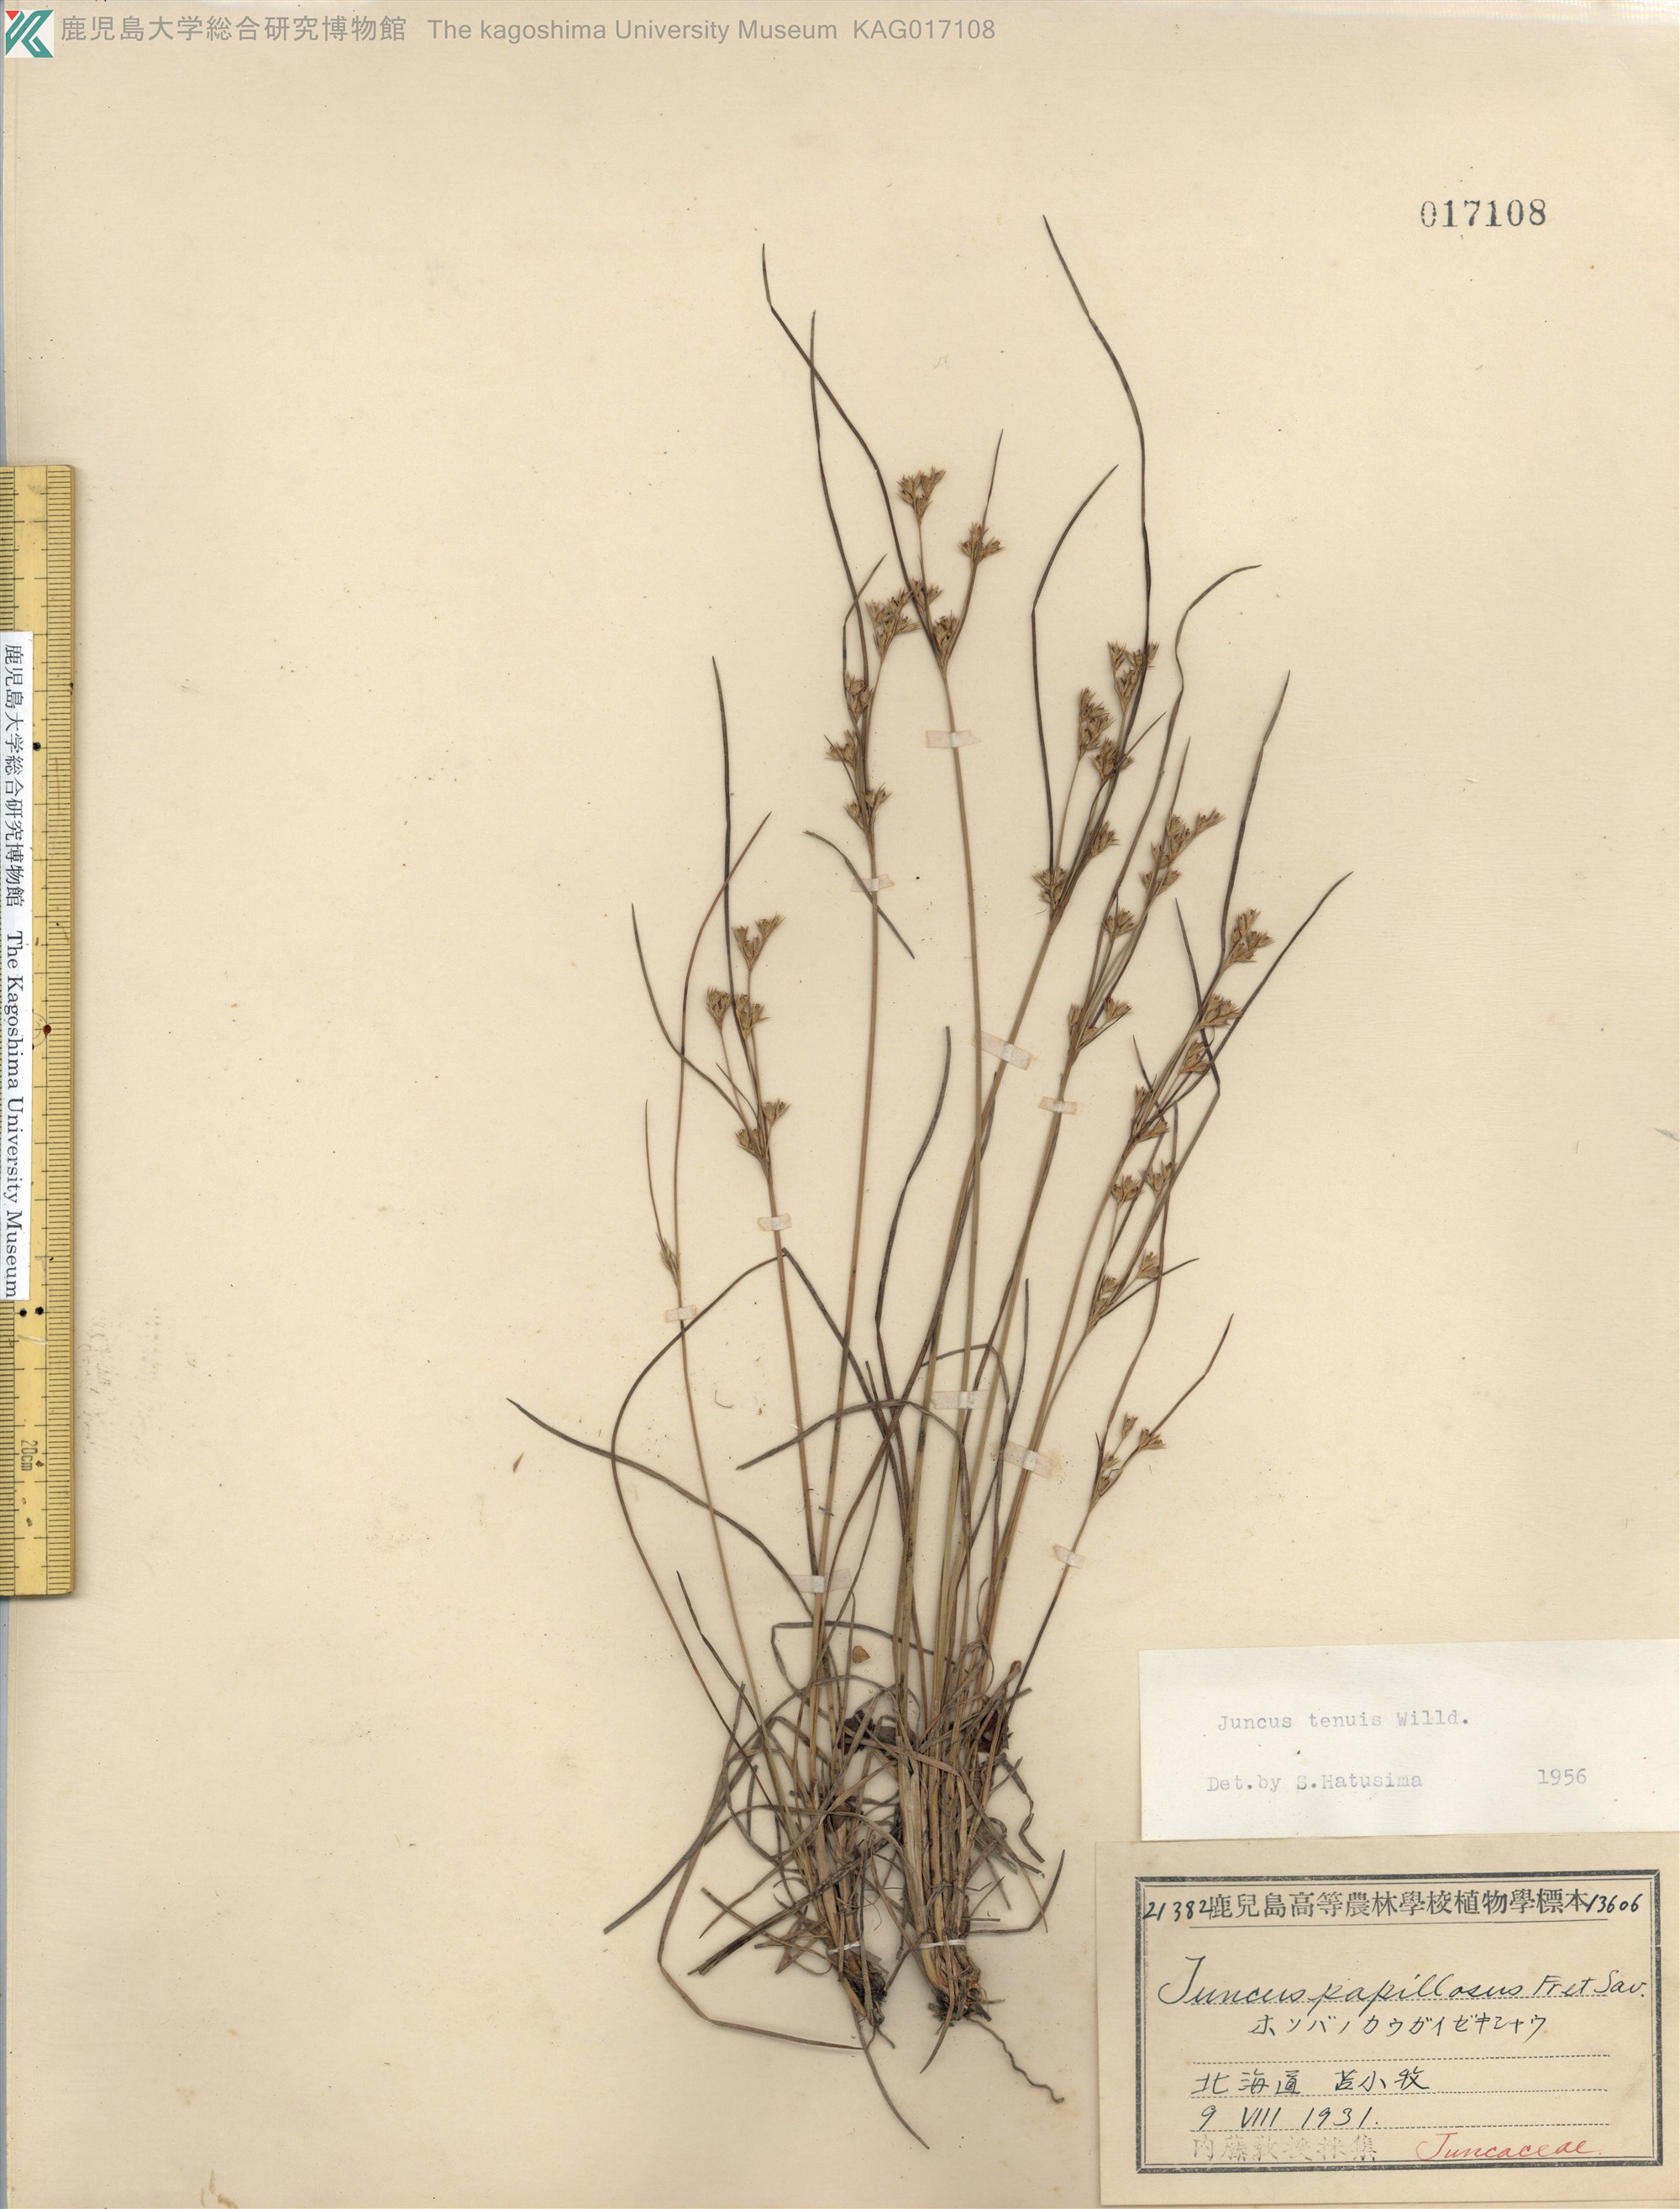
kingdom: Plantae
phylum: Tracheophyta
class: Liliopsida
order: Poales
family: Juncaceae
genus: Juncus
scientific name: Juncus tenuis
